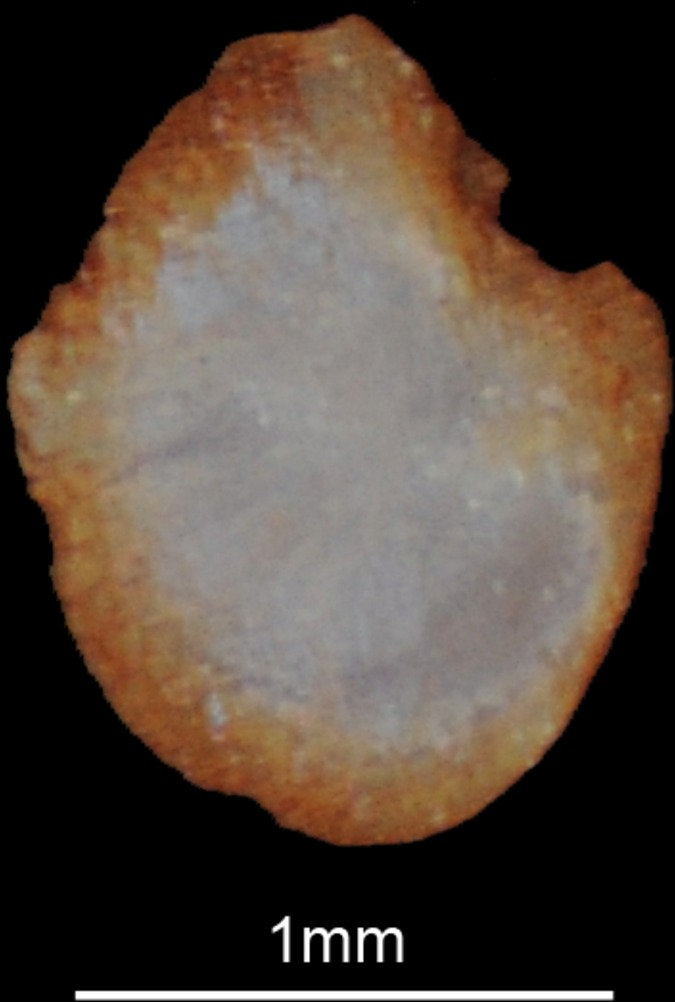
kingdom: Animalia
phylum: Chordata
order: Cypriniformes
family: Cyprinidae
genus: Cyprinion
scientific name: Cyprinion kais
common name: Smallmouth lotak
